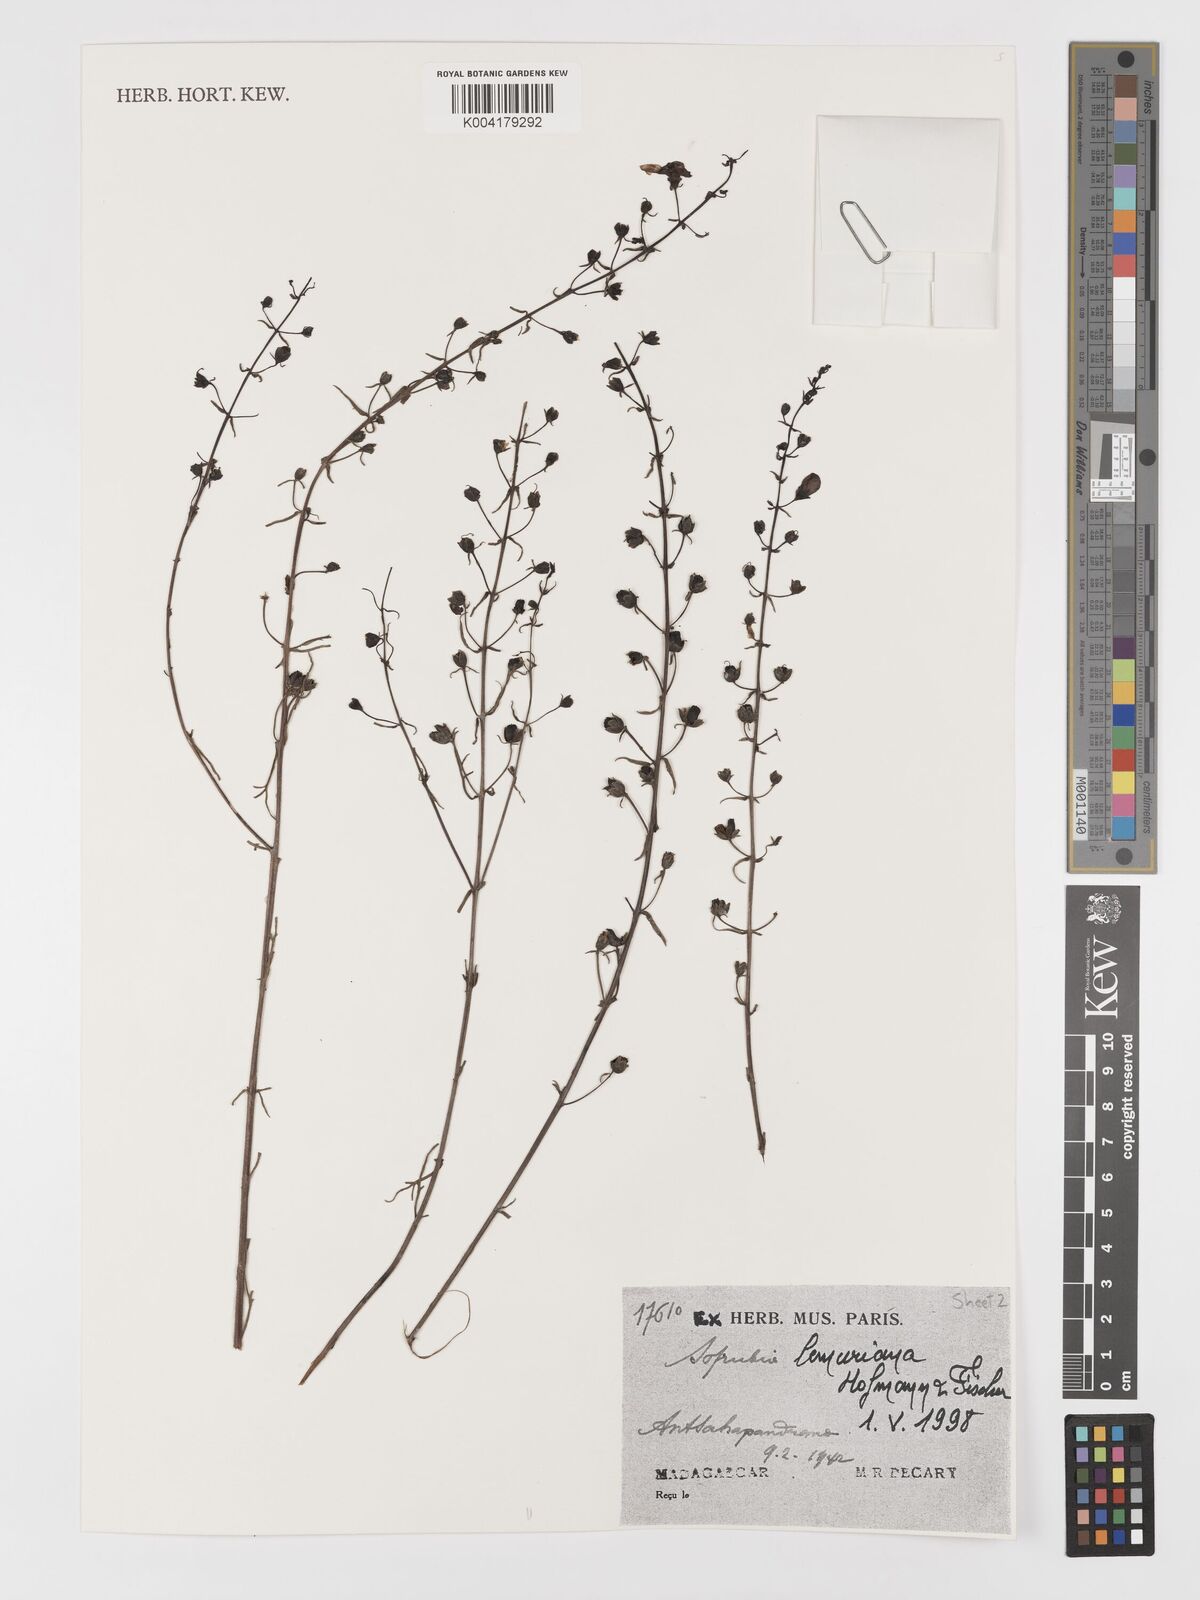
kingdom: Plantae
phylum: Tracheophyta
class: Magnoliopsida
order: Lamiales
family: Orobanchaceae
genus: Sopubia
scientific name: Sopubia lemuriana
